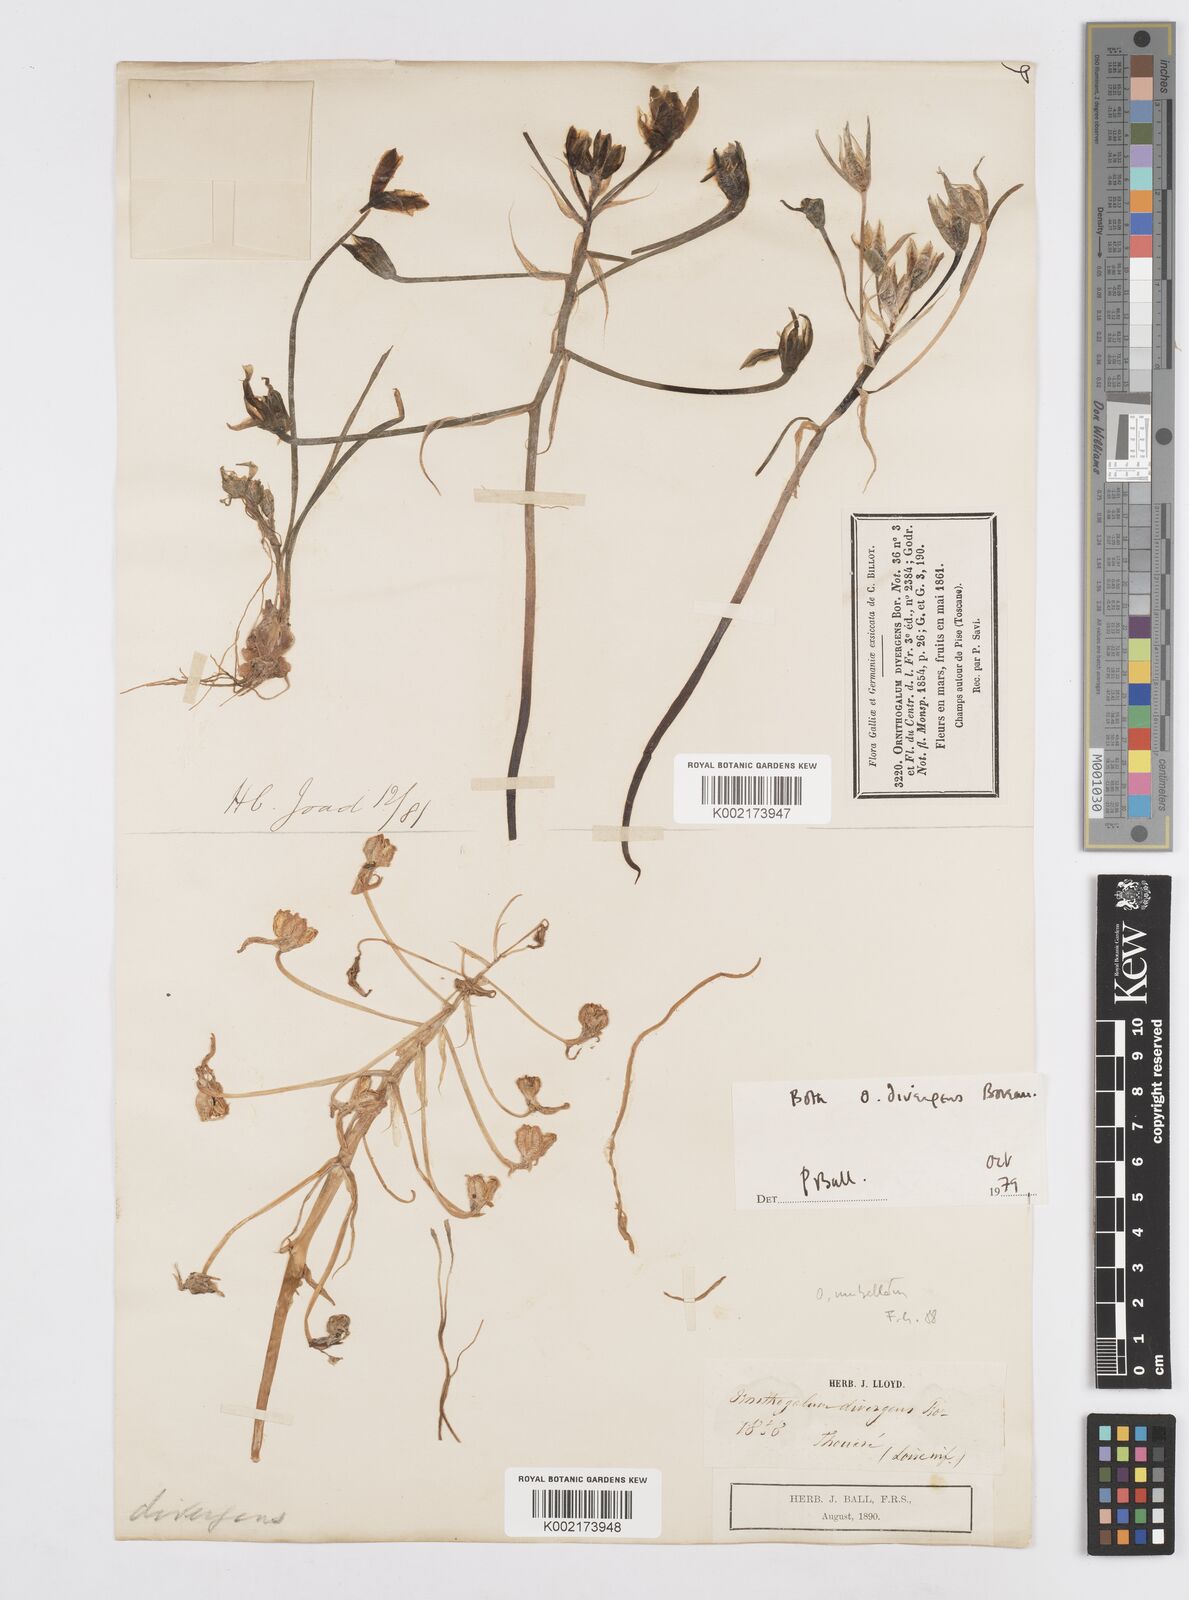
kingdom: Plantae
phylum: Tracheophyta
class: Liliopsida
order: Asparagales
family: Asparagaceae
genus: Ornithogalum
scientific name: Ornithogalum divergens
